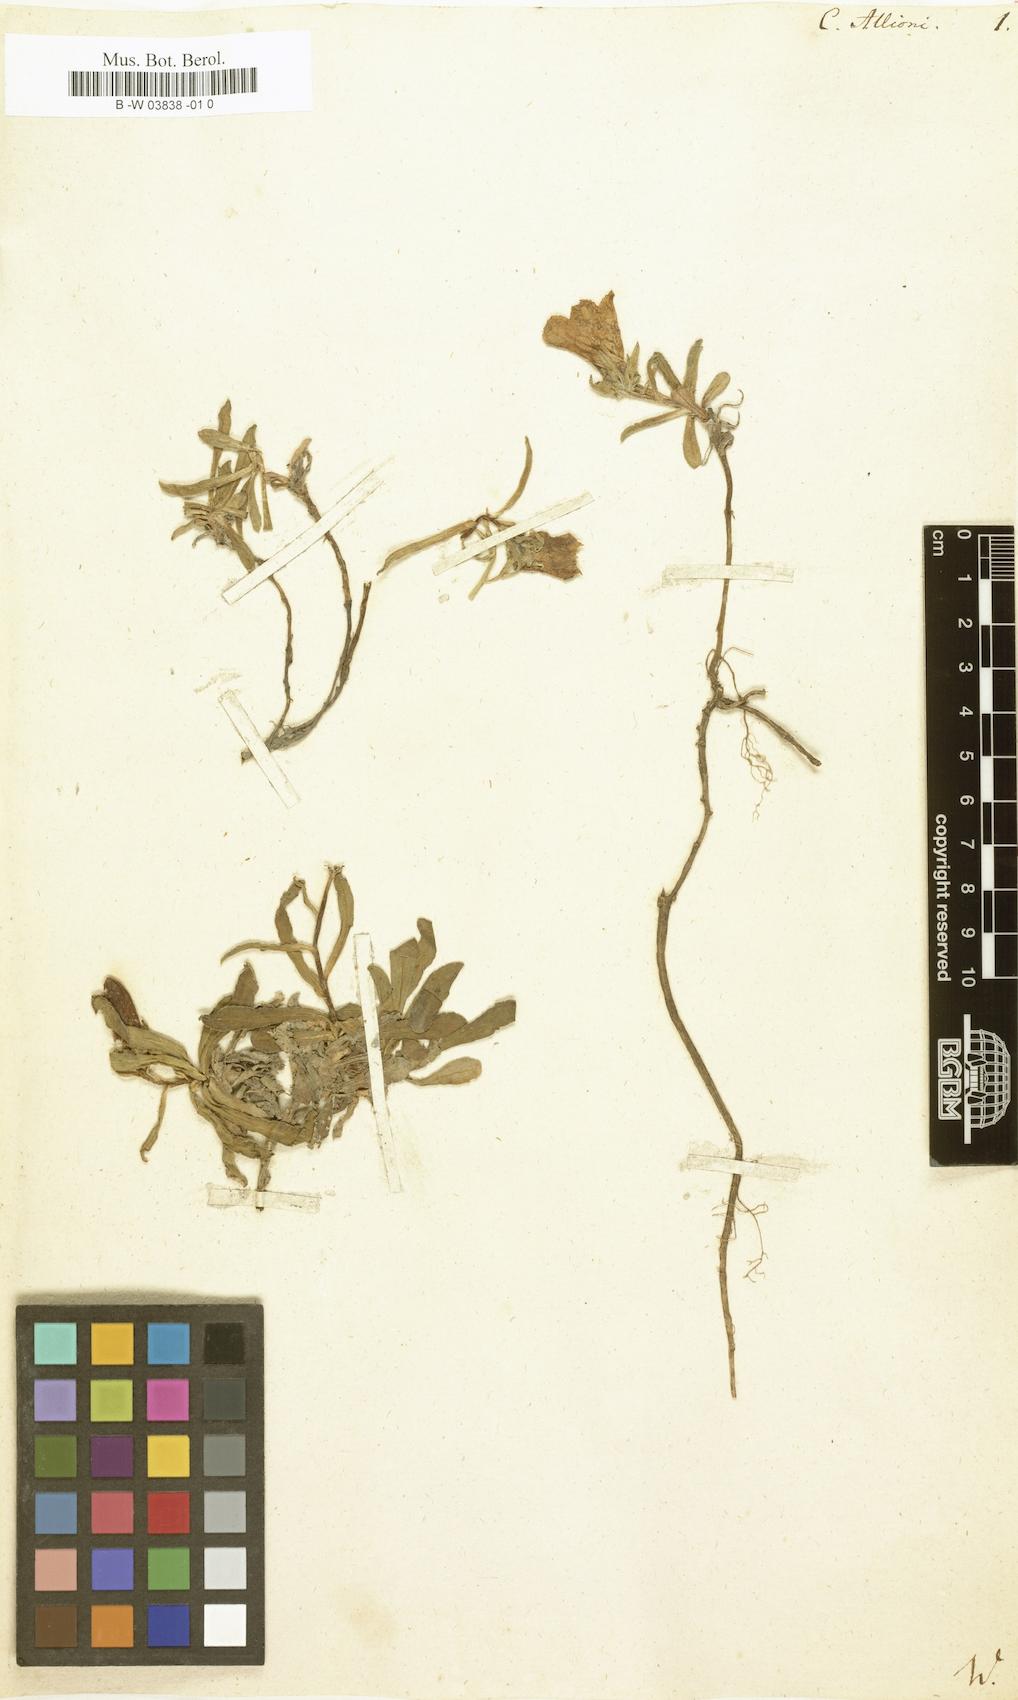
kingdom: Plantae
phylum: Tracheophyta
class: Magnoliopsida
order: Asterales
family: Campanulaceae
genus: Campanula
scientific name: Campanula
